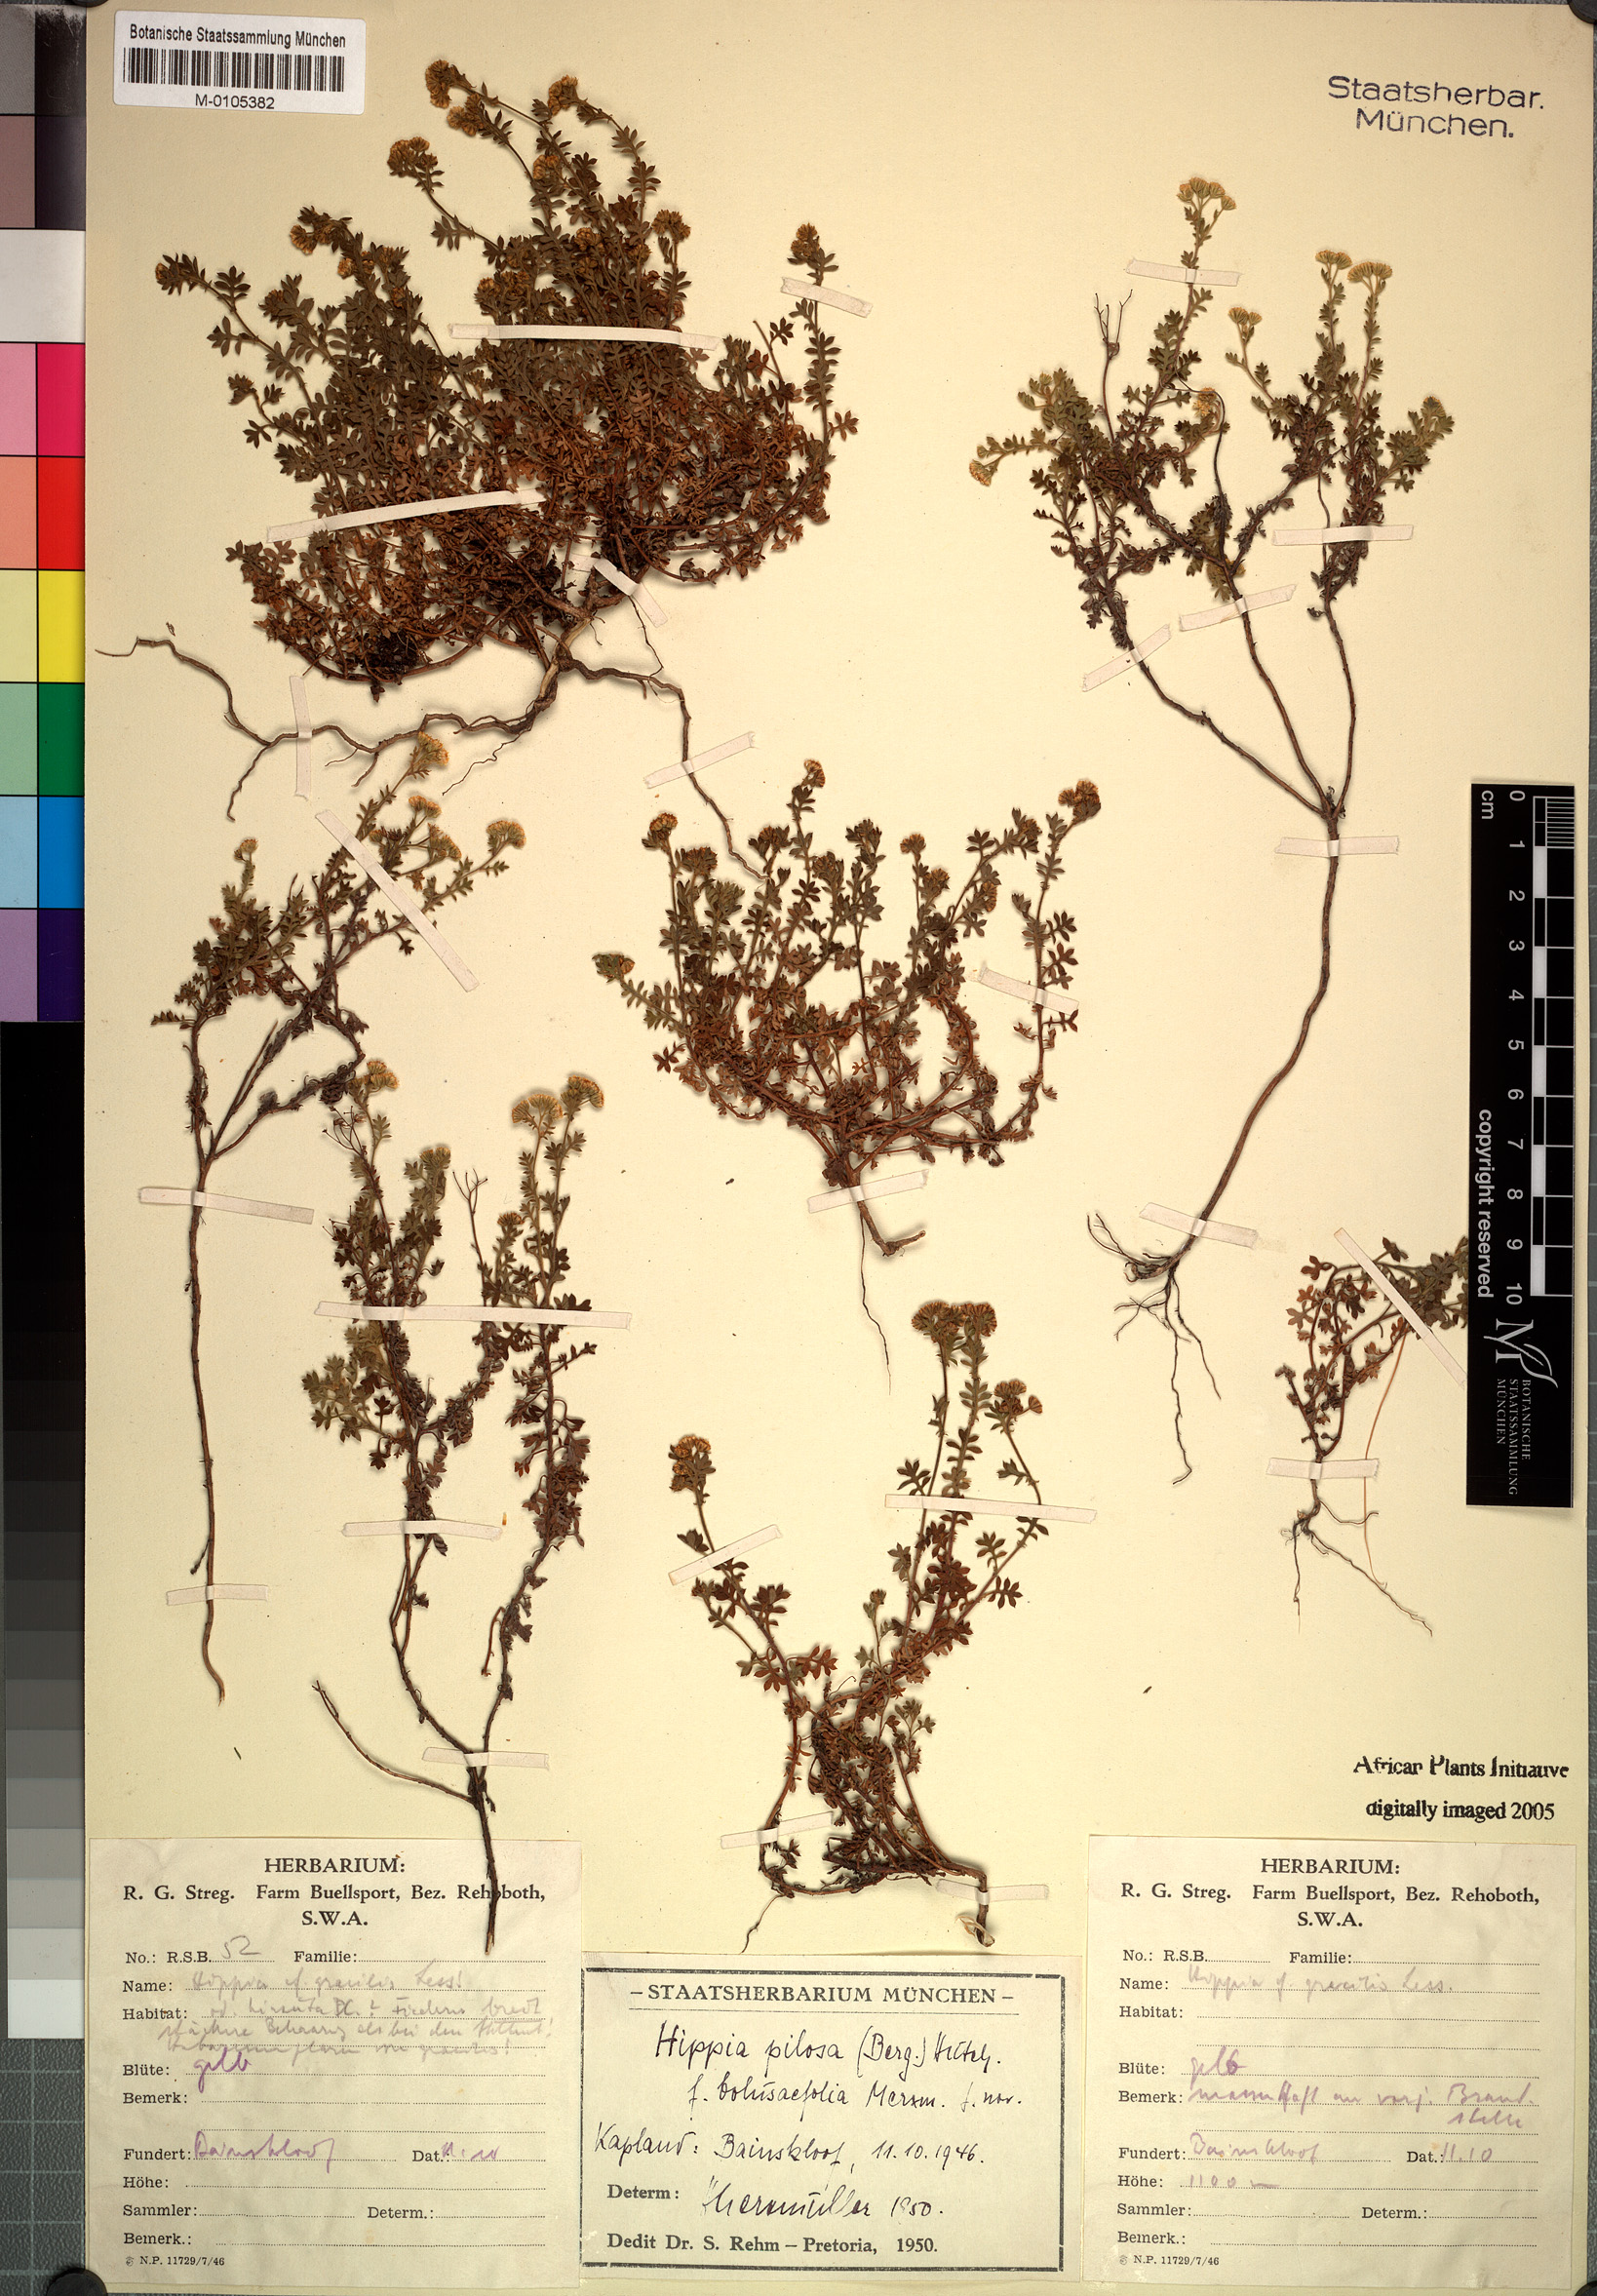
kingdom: Plantae
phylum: Tracheophyta
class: Magnoliopsida
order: Asterales
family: Asteraceae
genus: Hippia
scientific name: Hippia pilosa
